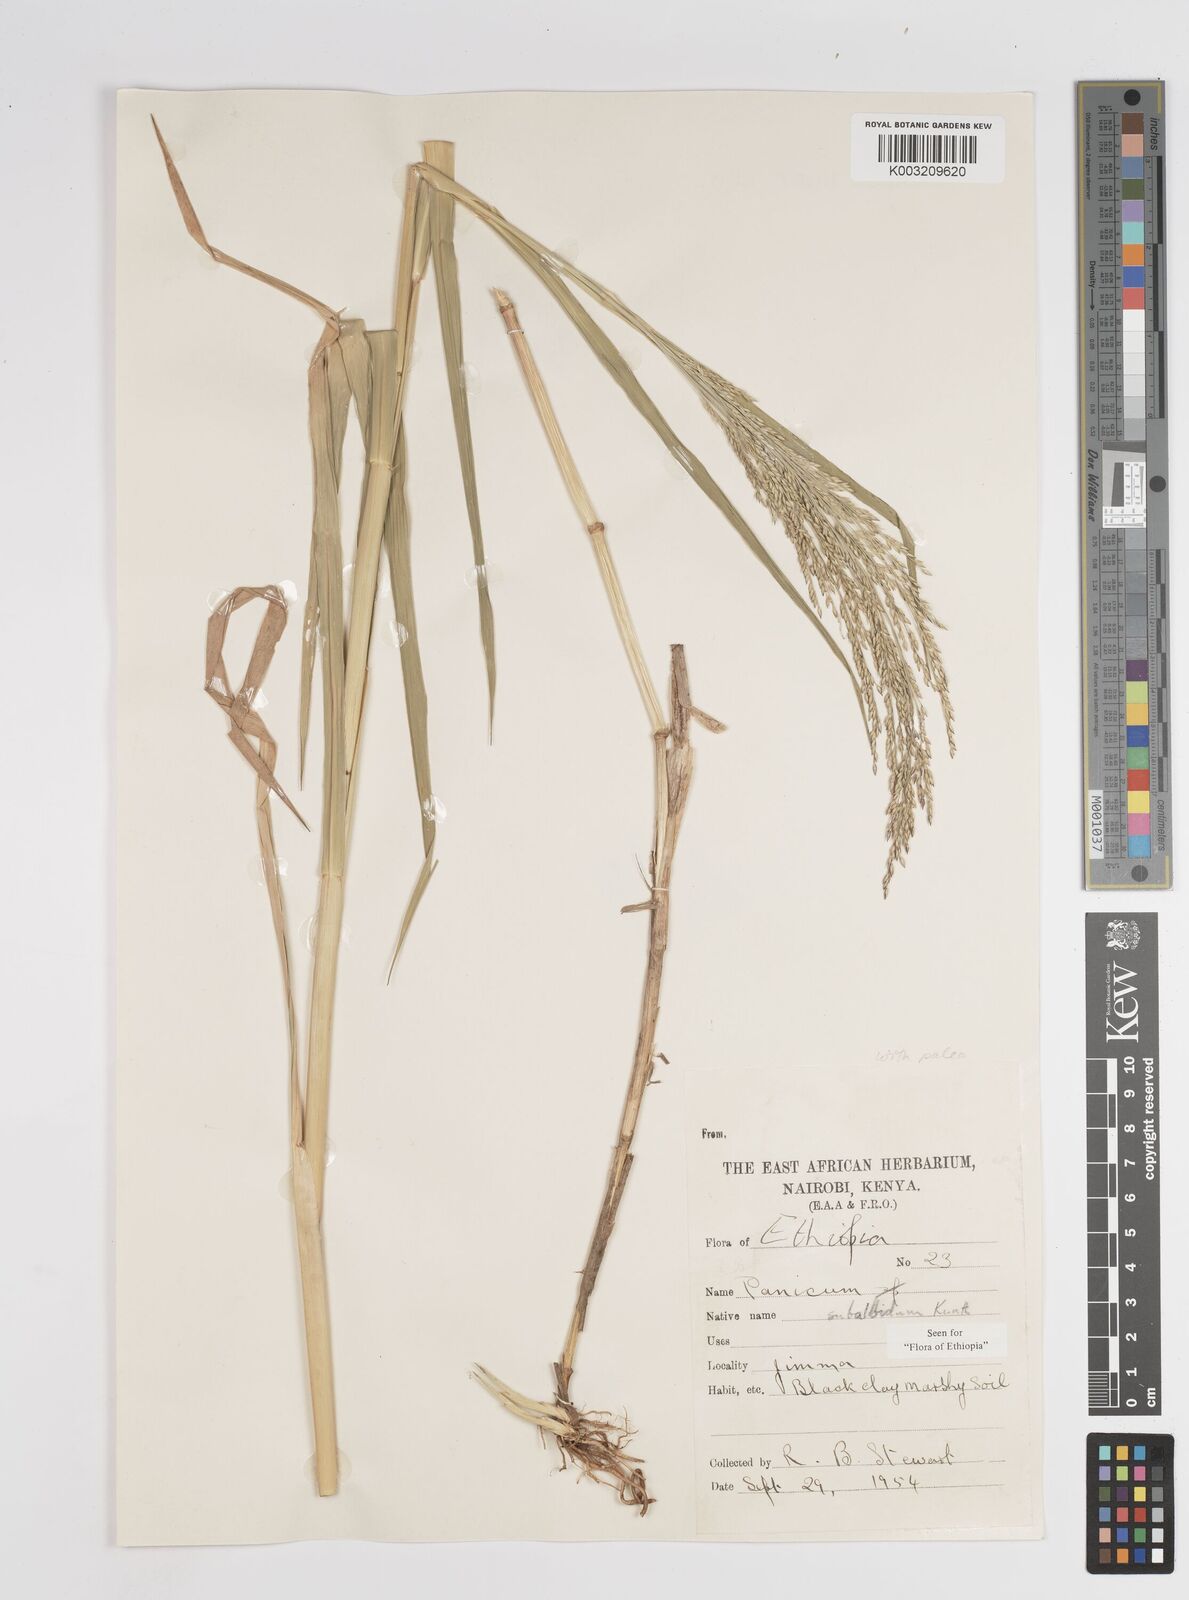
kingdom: Plantae
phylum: Tracheophyta
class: Liliopsida
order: Poales
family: Poaceae
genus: Panicum
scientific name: Panicum subalbidum
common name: Elbow buffalo grass
